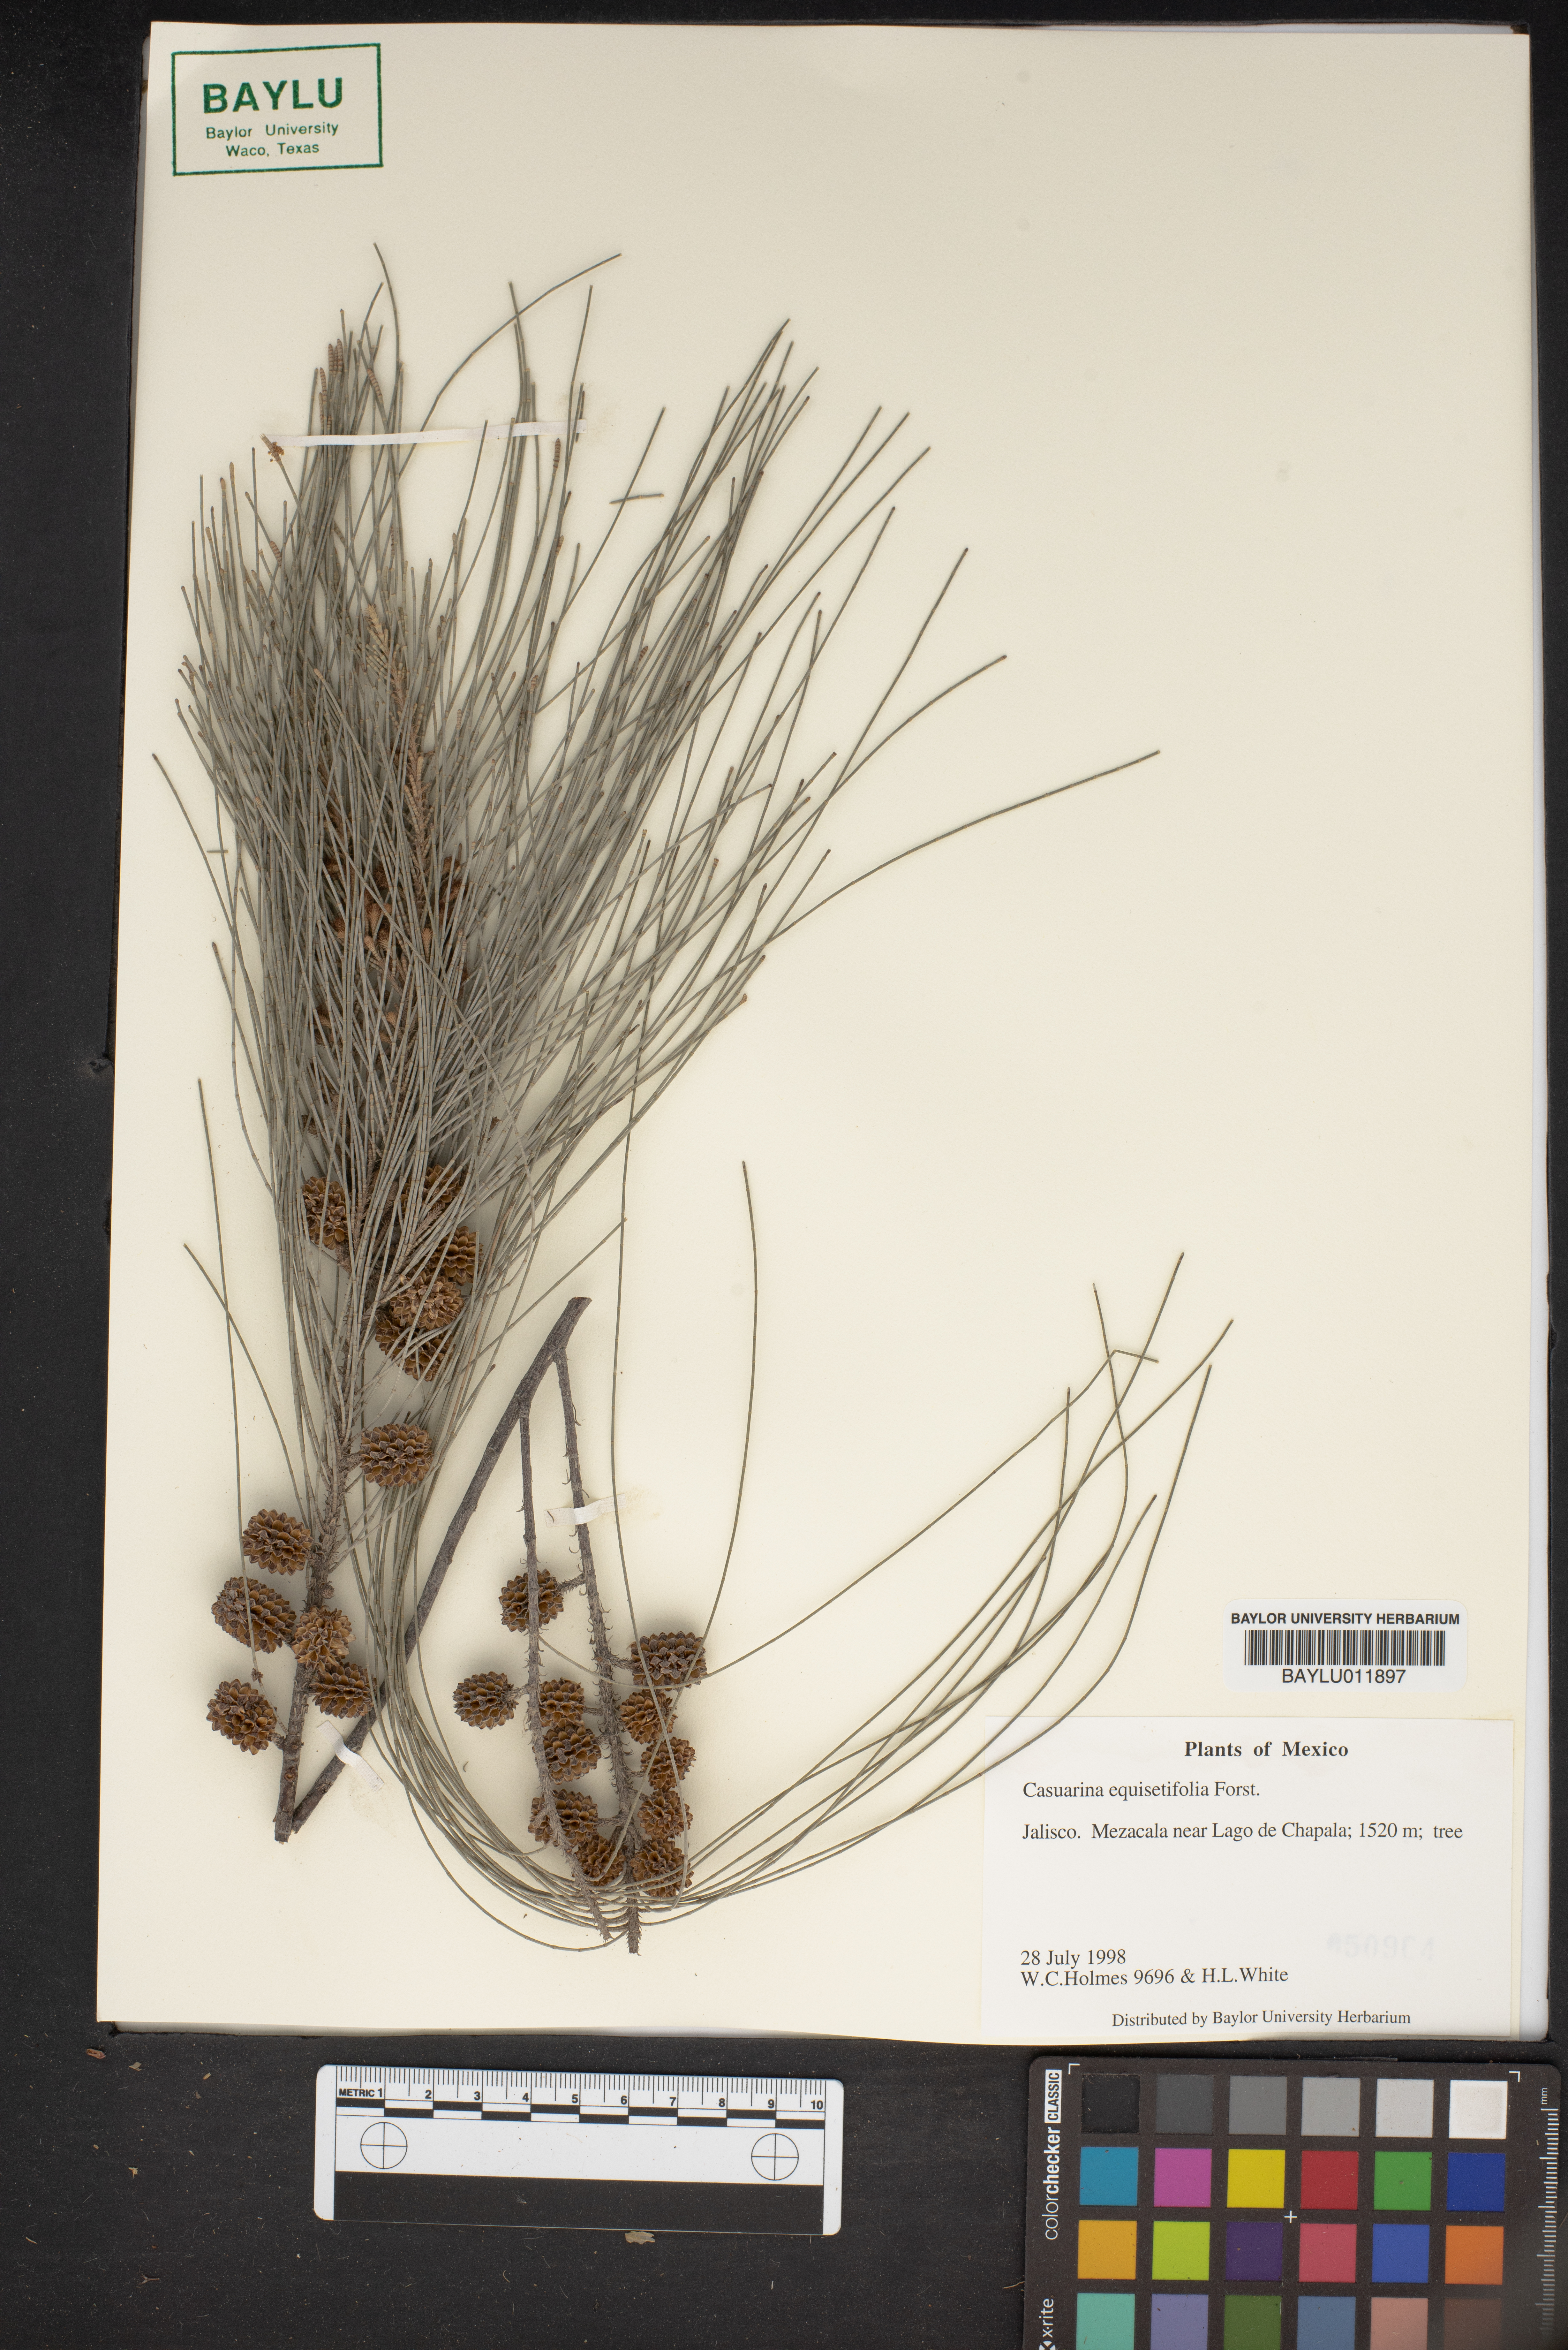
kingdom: Plantae
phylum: Tracheophyta
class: Magnoliopsida
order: Fagales
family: Casuarinaceae
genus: Casuarina
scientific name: Casuarina equisetifolia
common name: Beach sheoak
